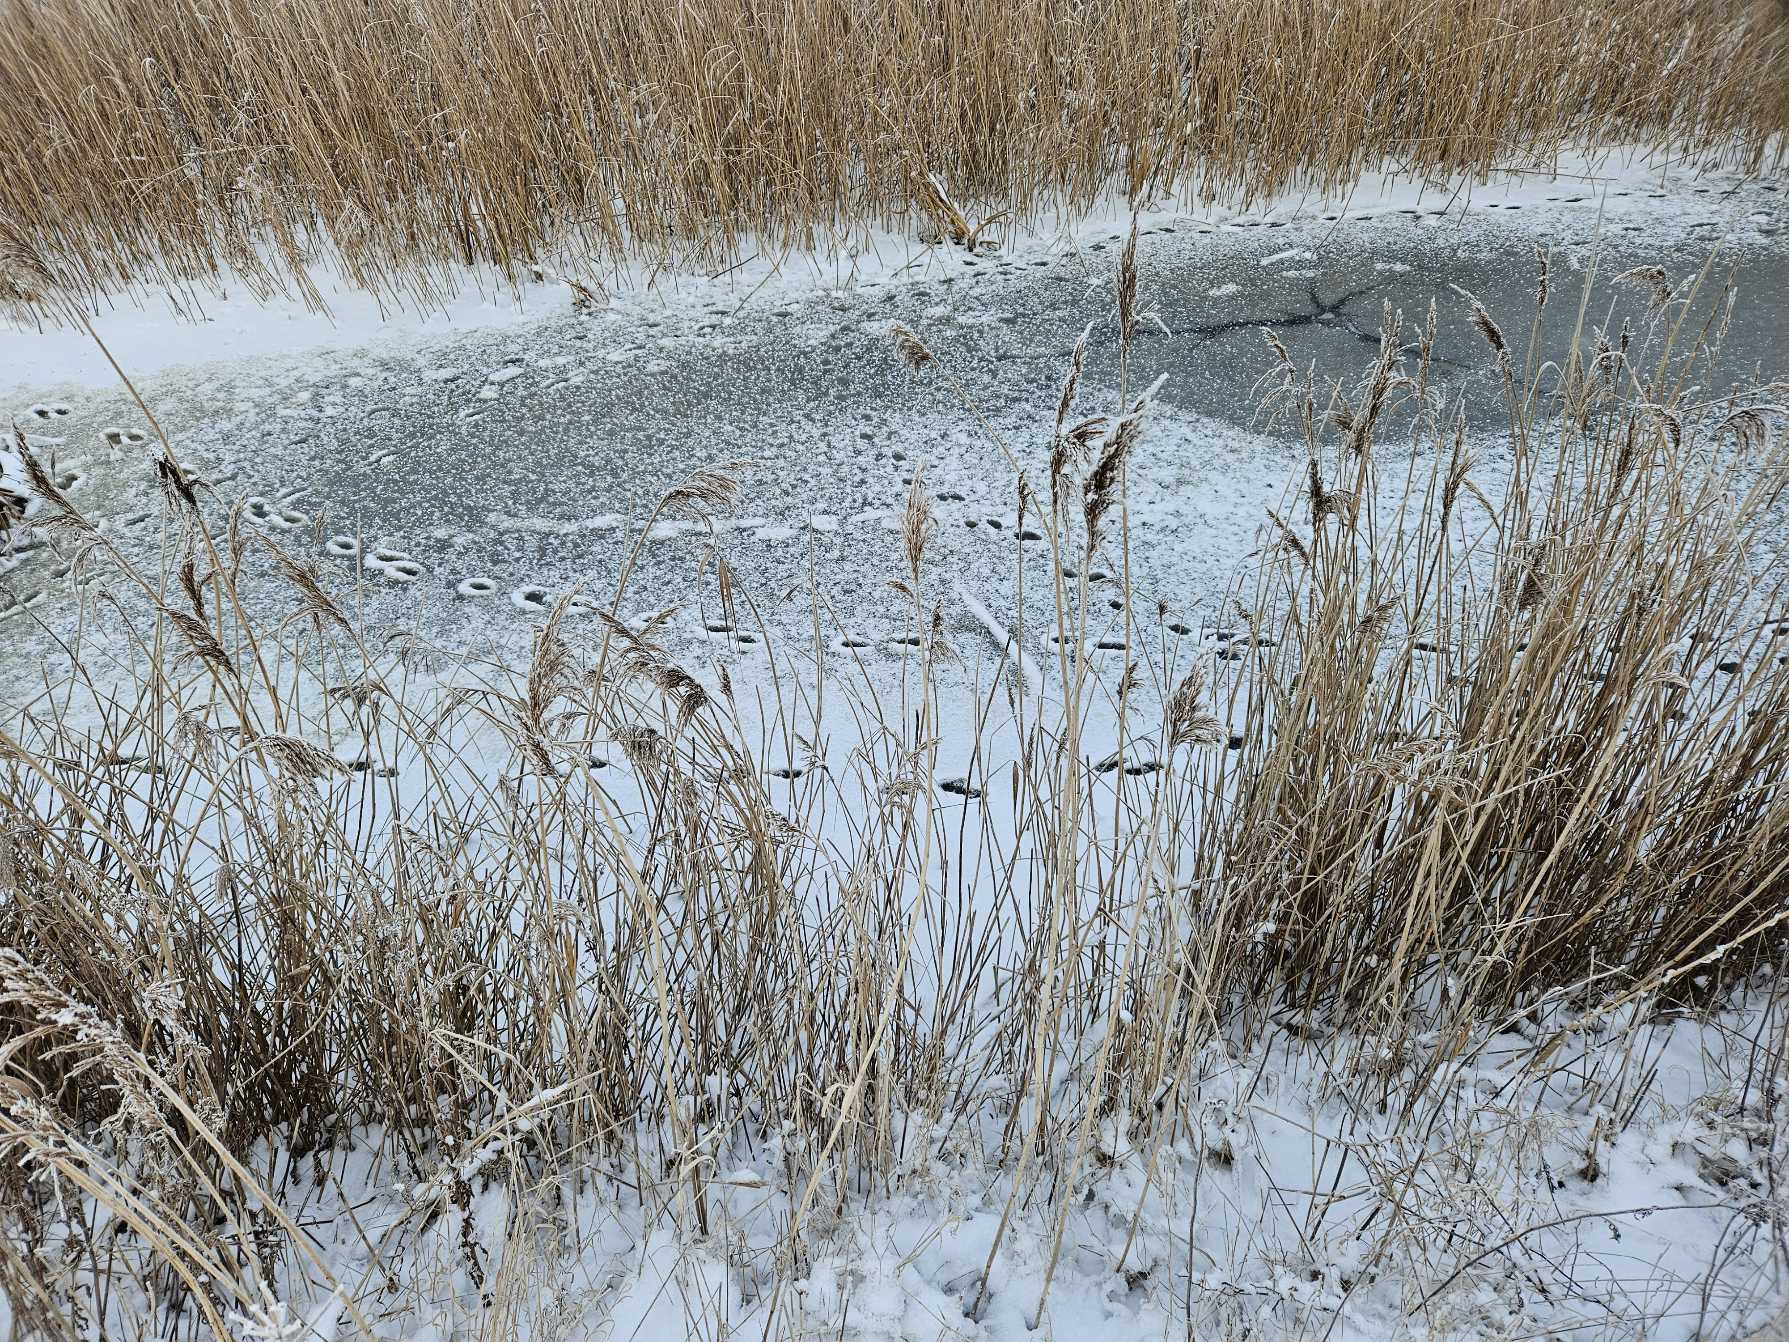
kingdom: Animalia
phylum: Chordata
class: Mammalia
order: Carnivora
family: Mustelidae
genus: Lutra
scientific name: Lutra lutra
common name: Odder
